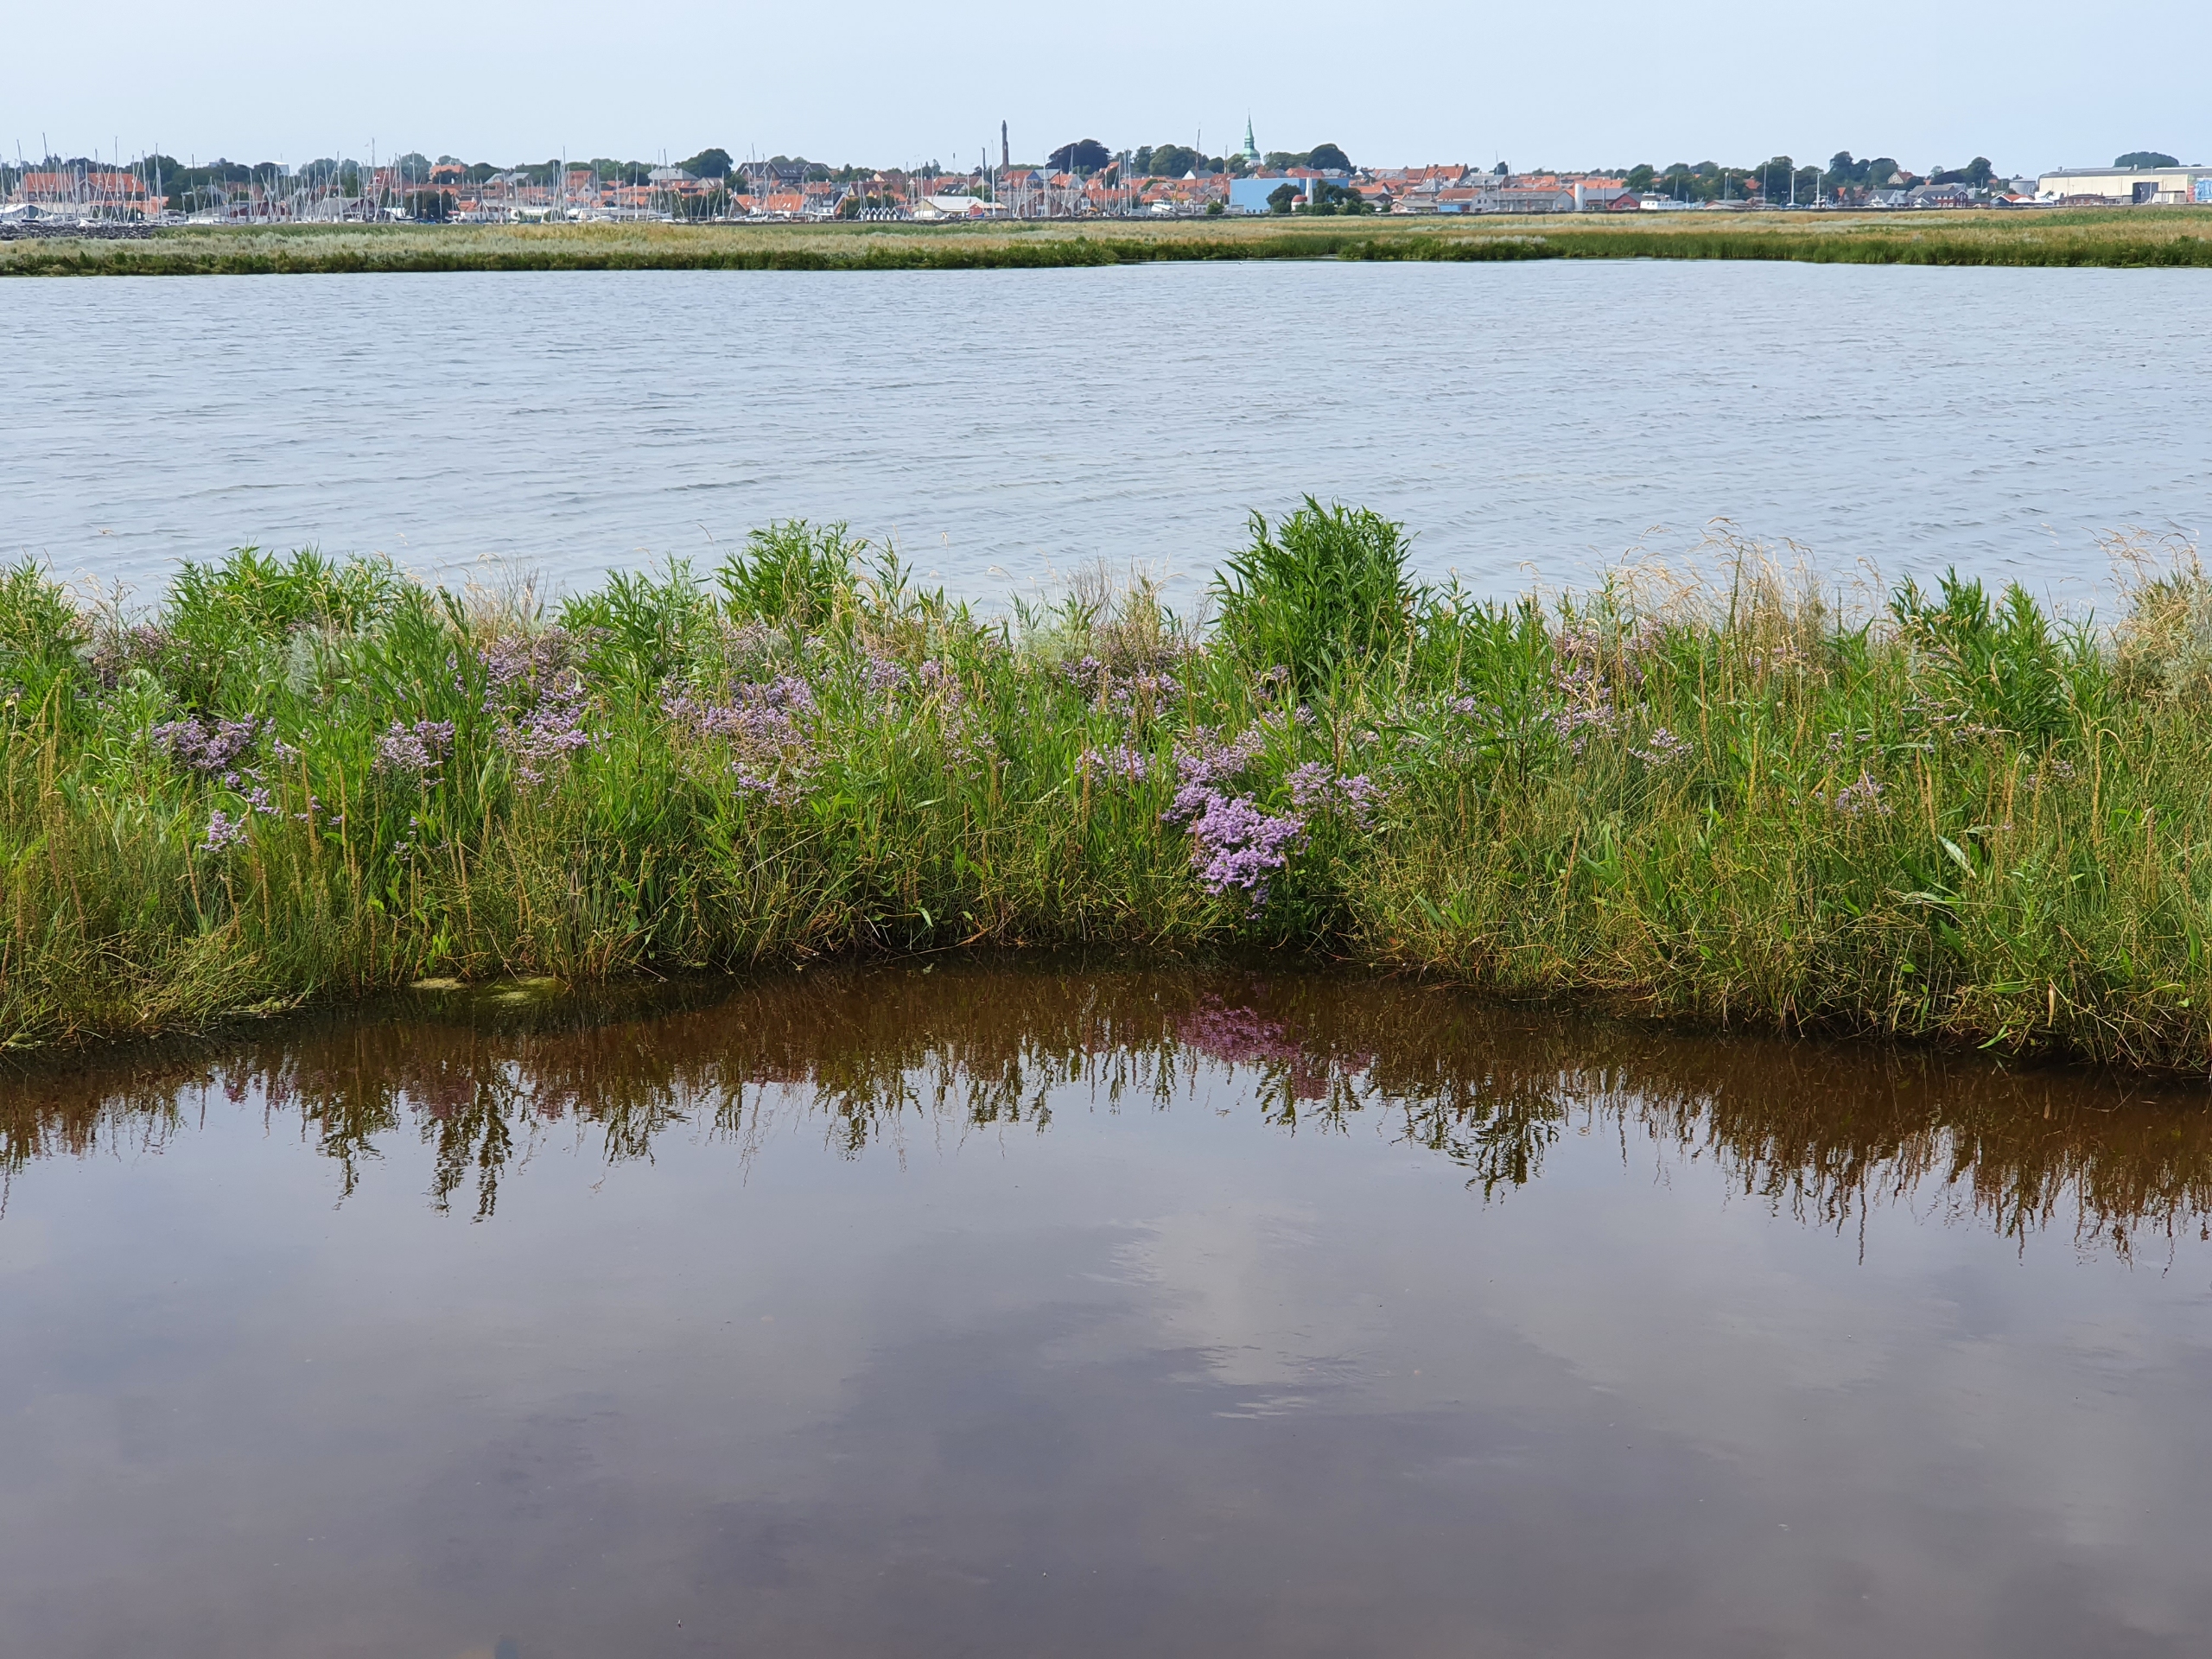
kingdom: Plantae
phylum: Tracheophyta
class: Magnoliopsida
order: Caryophyllales
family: Plumbaginaceae
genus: Limonium
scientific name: Limonium vulgare
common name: Tætblomstret hindebæger
